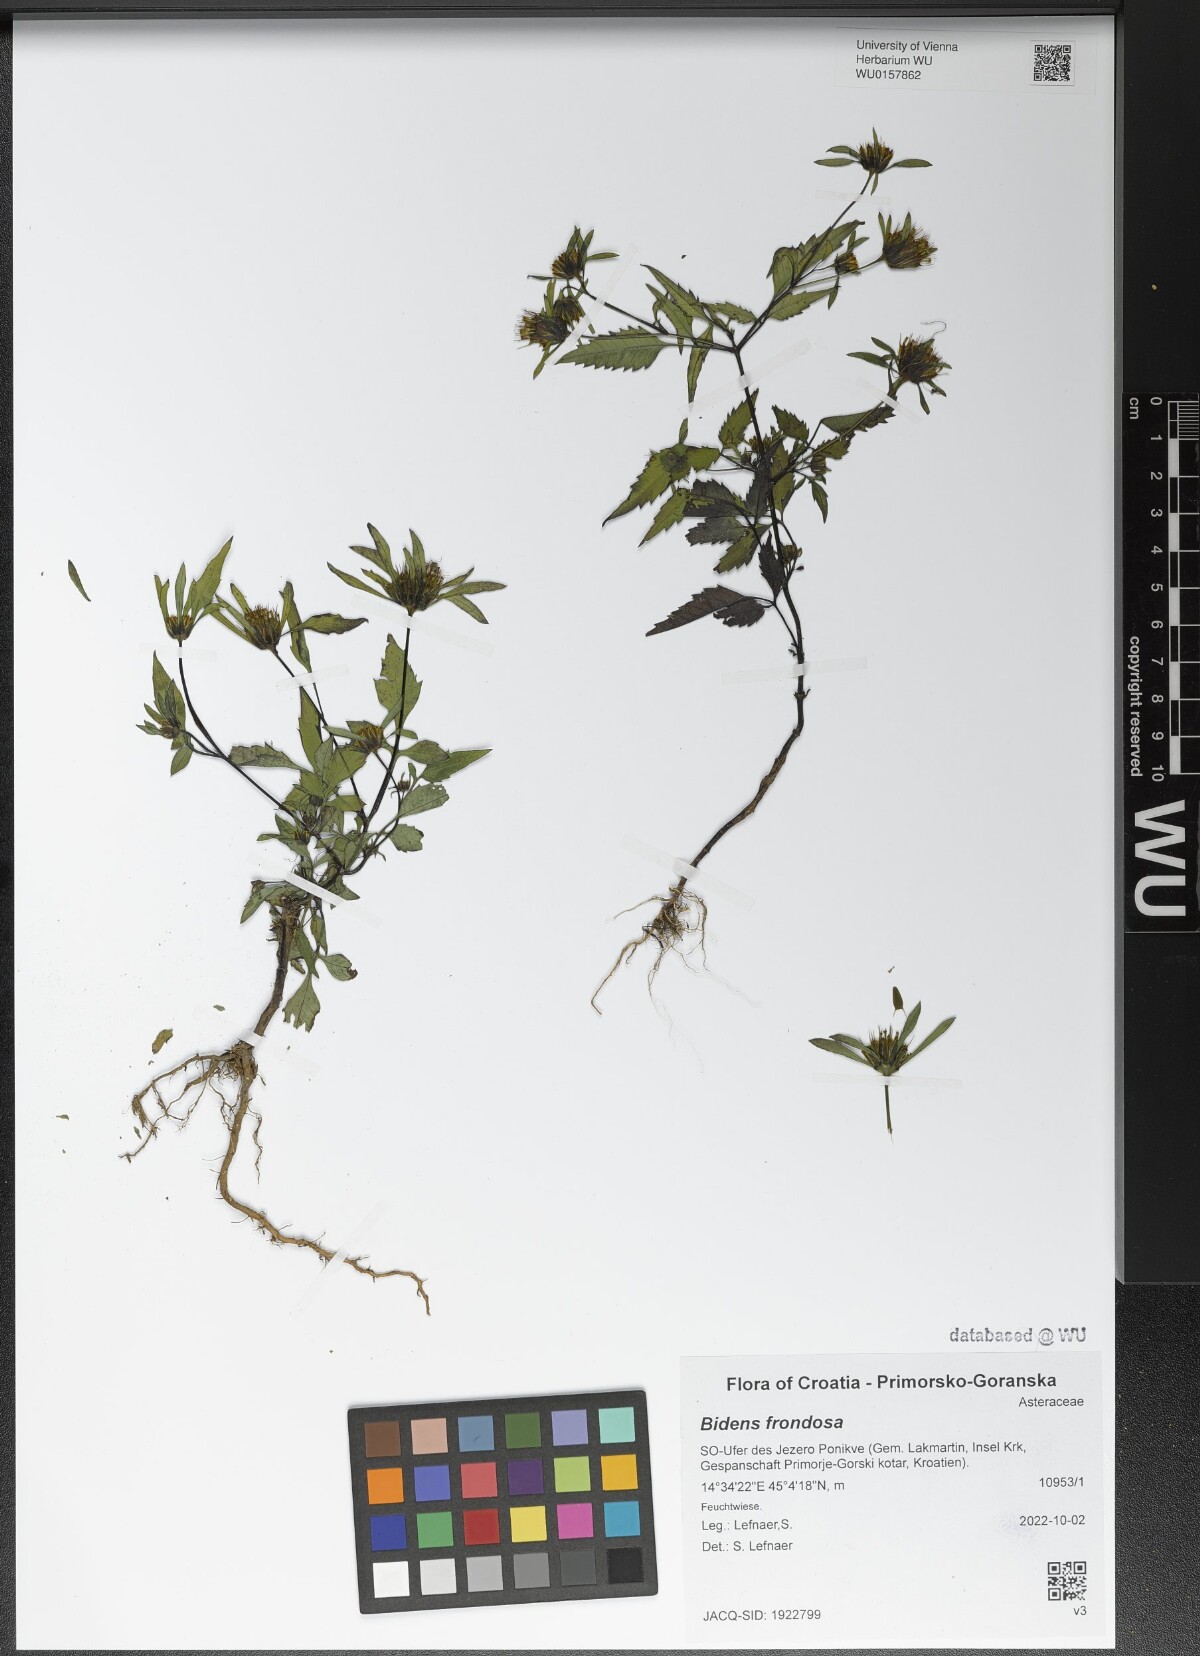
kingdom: Plantae
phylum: Tracheophyta
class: Magnoliopsida
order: Asterales
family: Asteraceae
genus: Bidens
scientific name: Bidens frondosa
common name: Beggarticks
